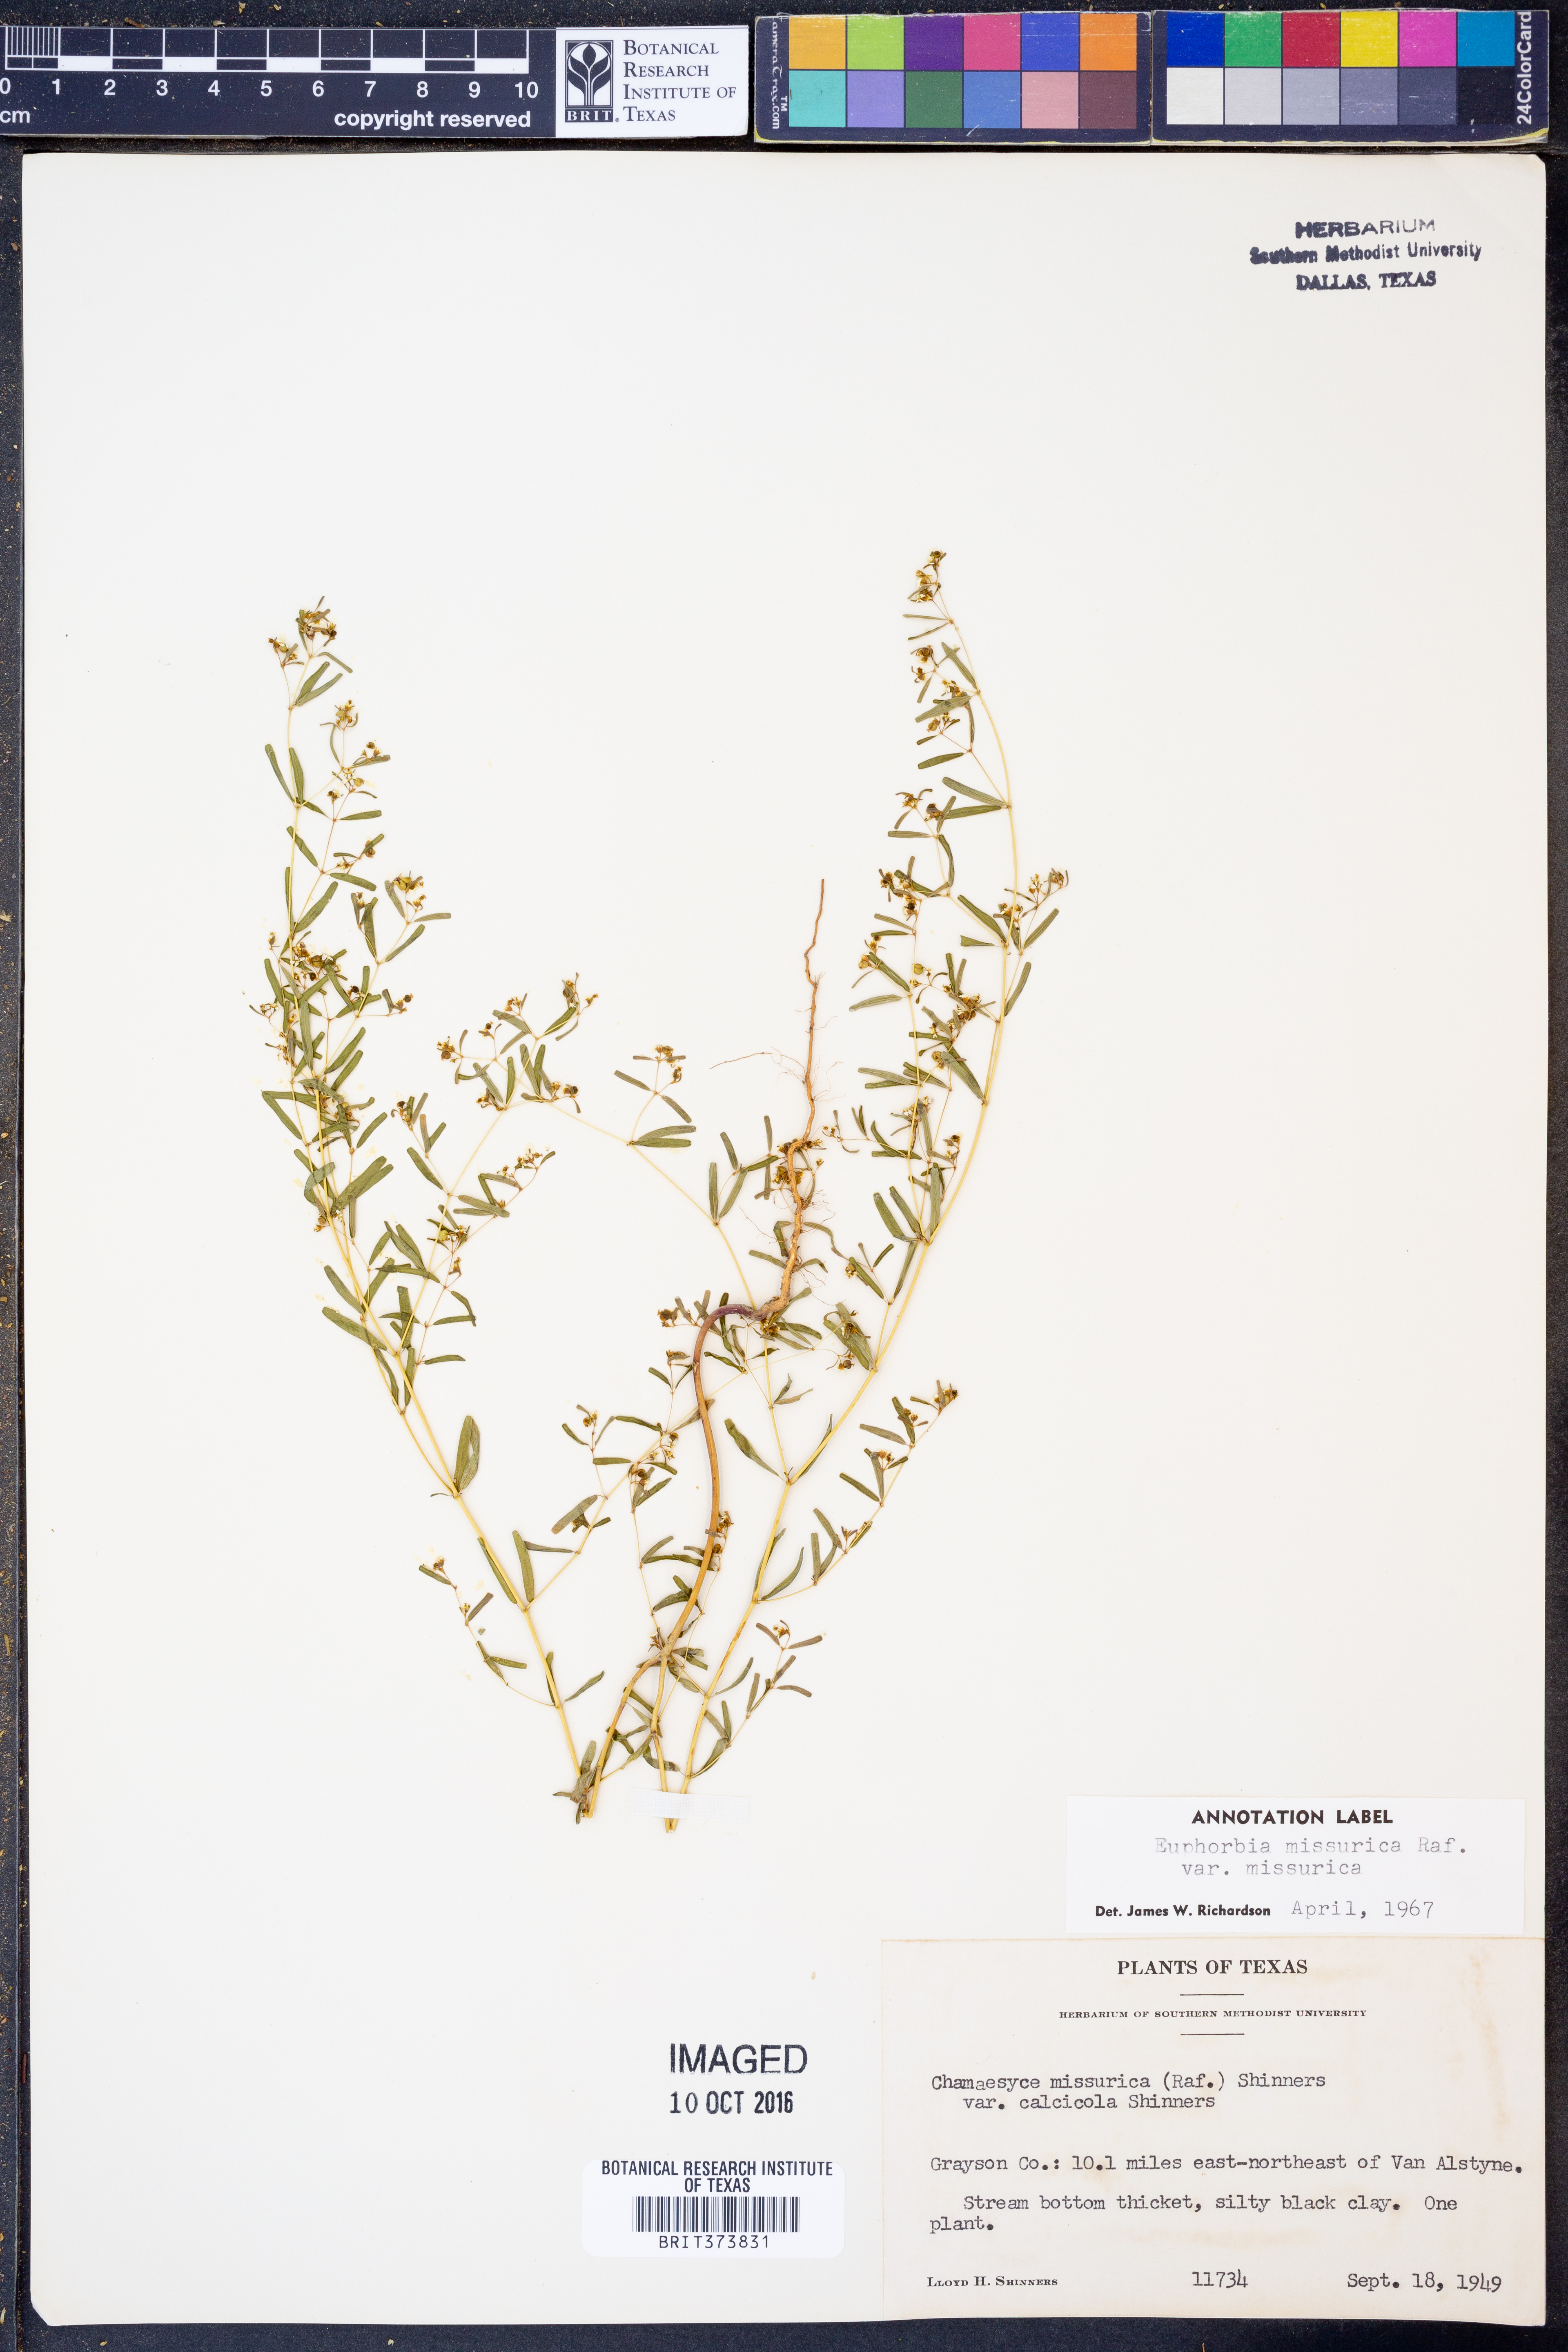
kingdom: Plantae
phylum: Tracheophyta
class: Magnoliopsida
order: Malpighiales
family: Euphorbiaceae
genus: Euphorbia
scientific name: Euphorbia missurica
